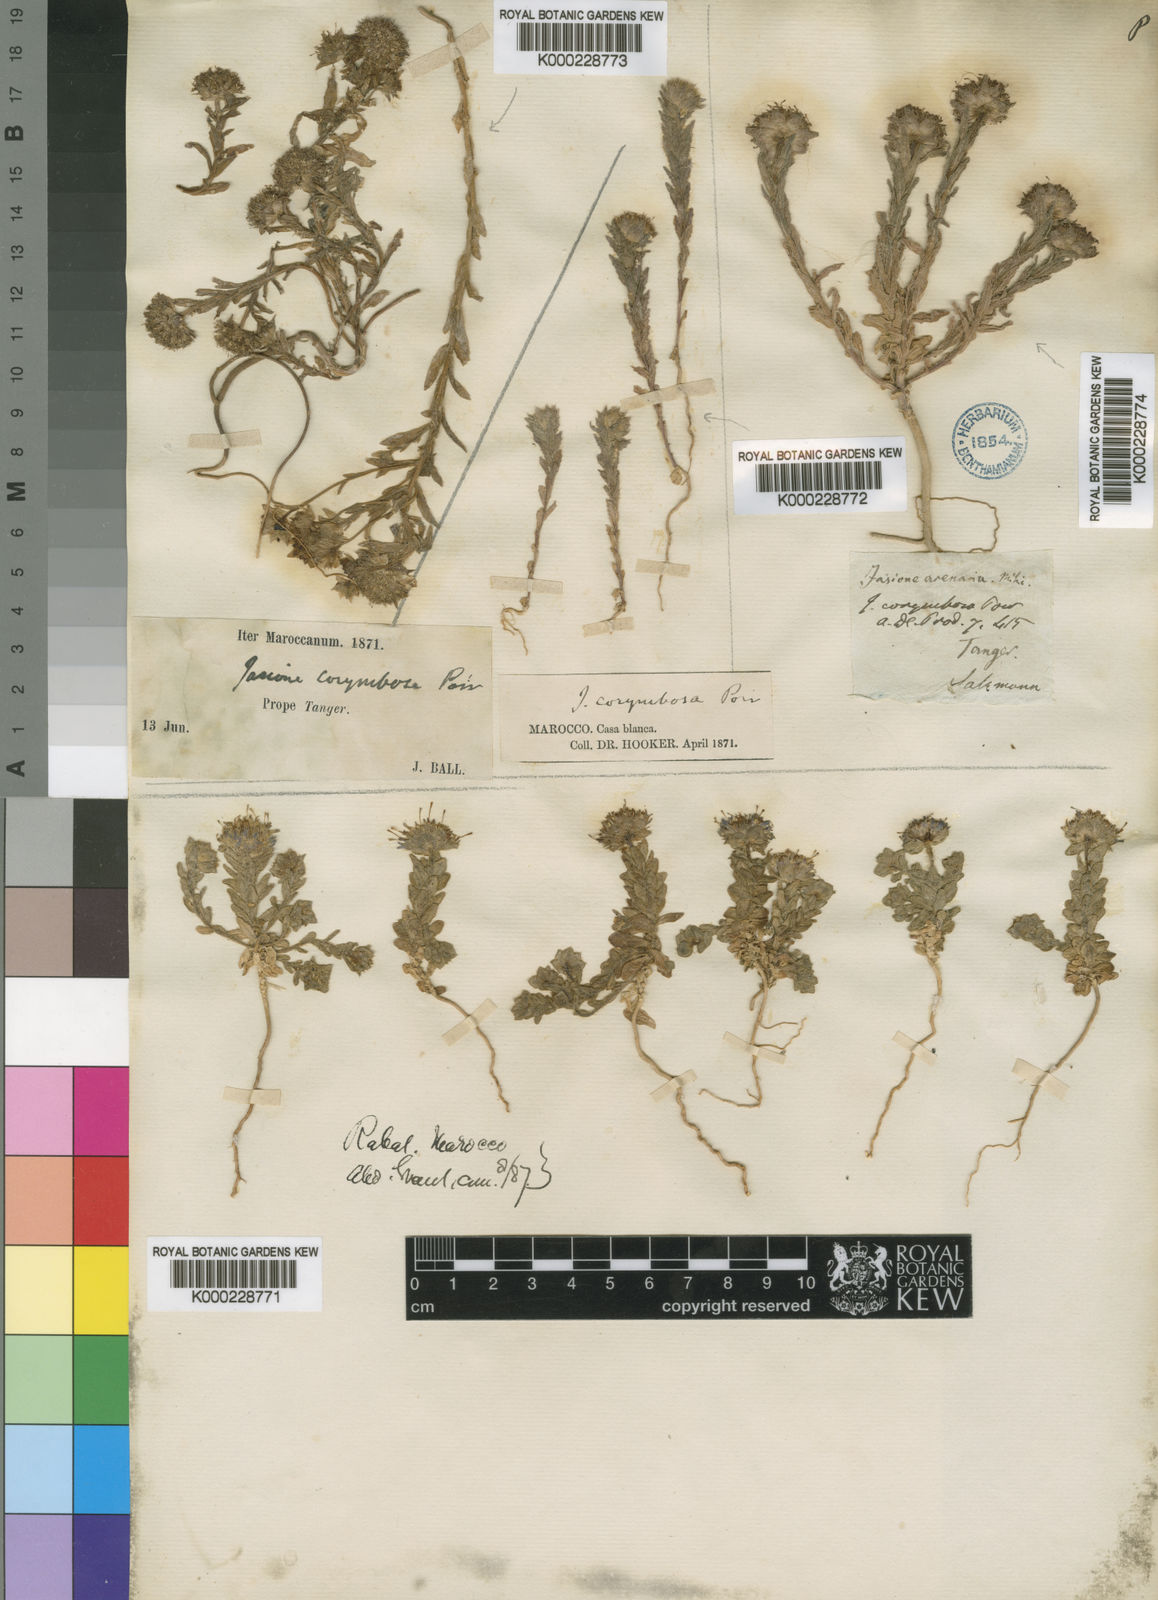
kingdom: Plantae
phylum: Tracheophyta
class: Magnoliopsida
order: Asterales
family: Campanulaceae
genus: Jasione
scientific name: Jasione
